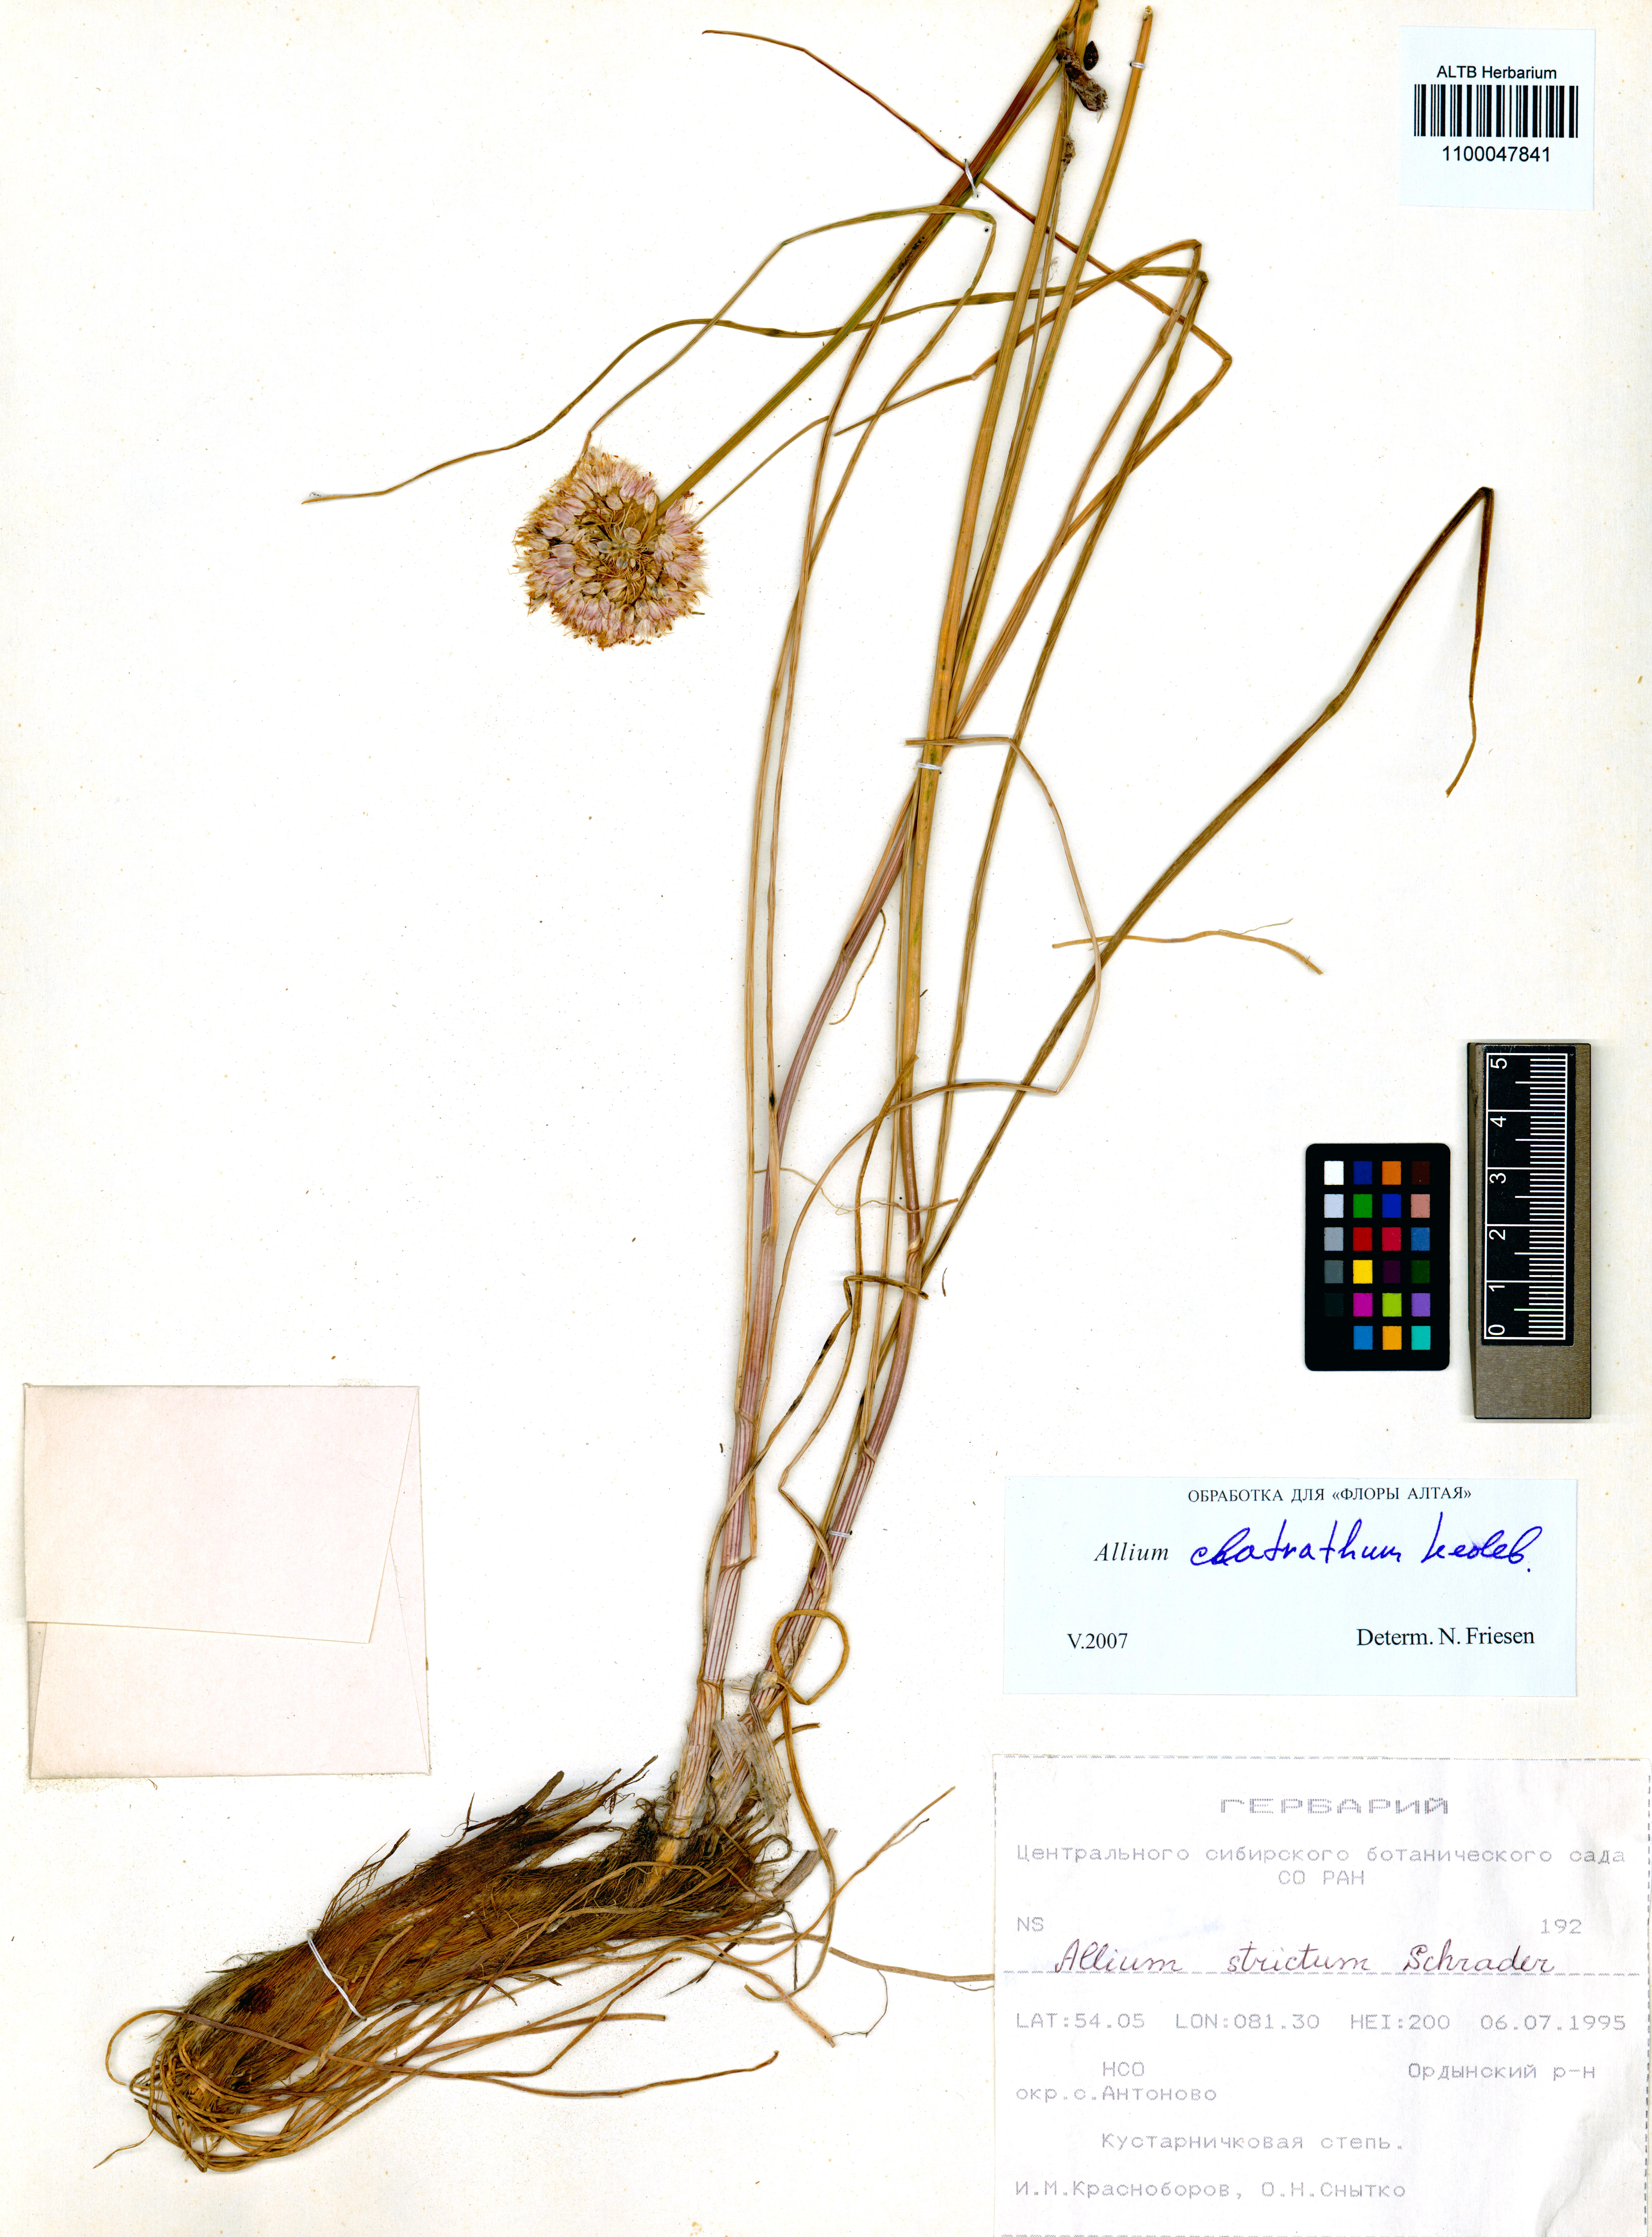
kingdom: Plantae
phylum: Tracheophyta
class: Liliopsida
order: Asparagales
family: Amaryllidaceae
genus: Allium
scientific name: Allium clathratum
